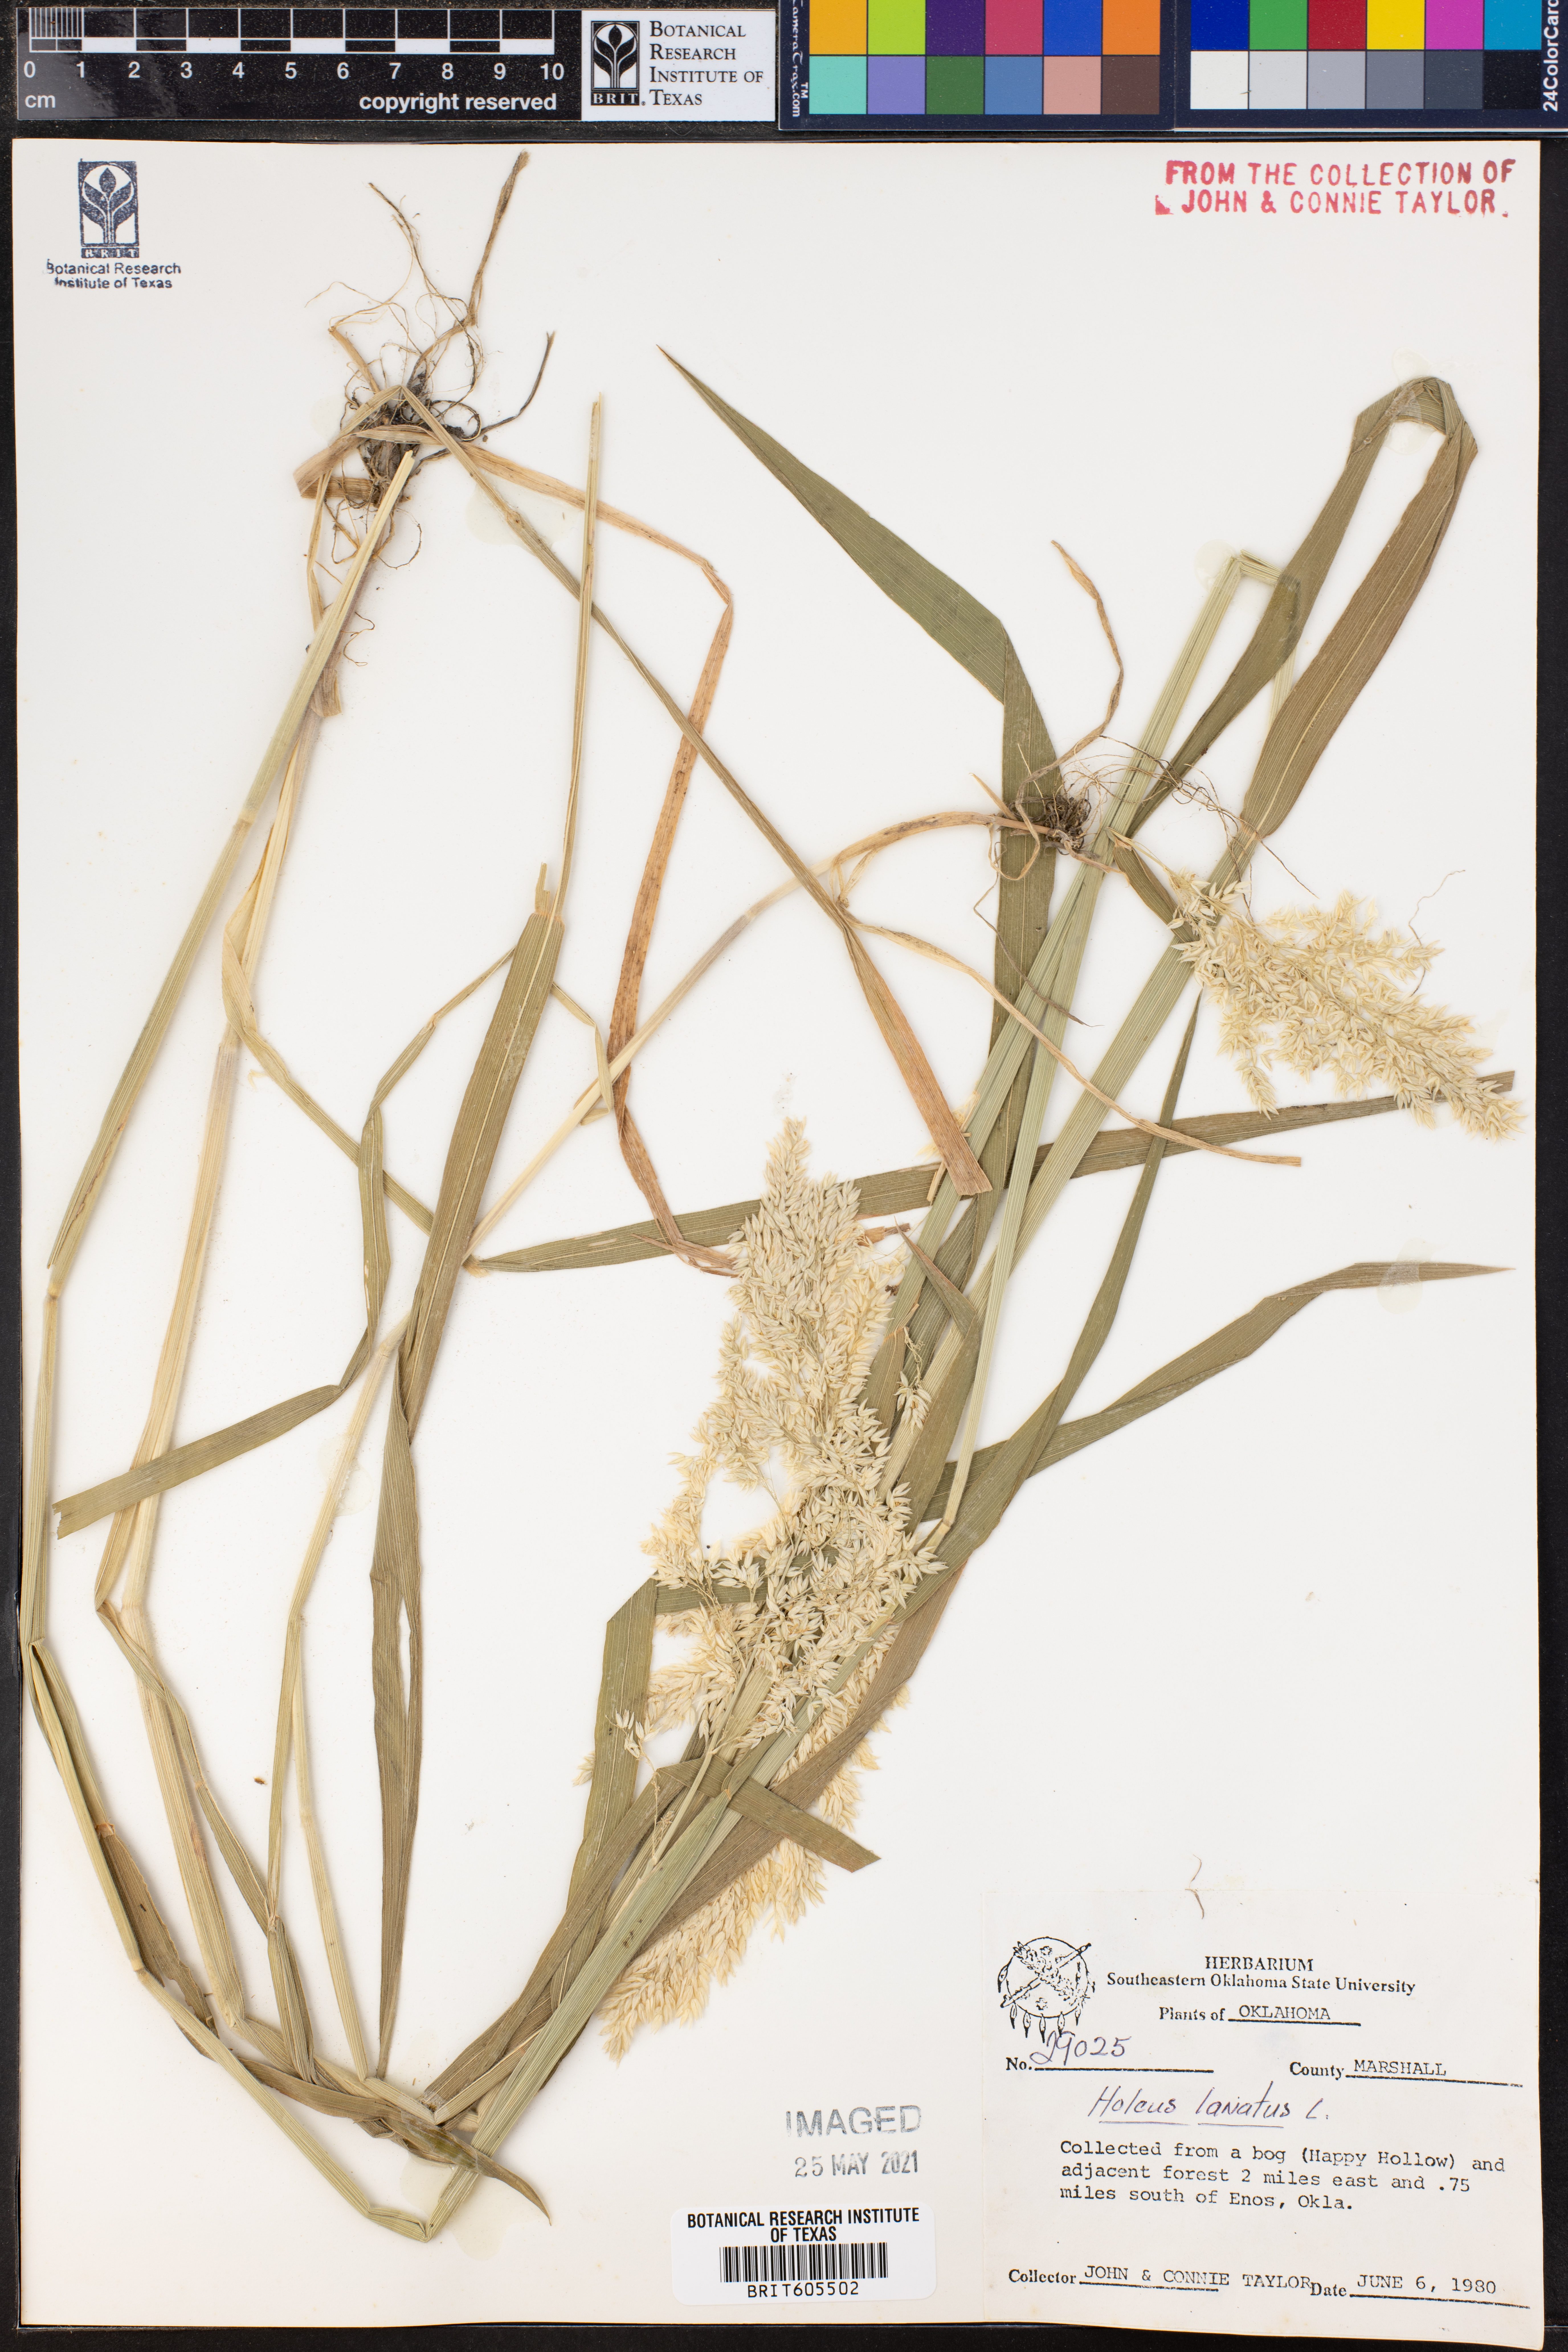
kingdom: Plantae
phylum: Tracheophyta
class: Liliopsida
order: Poales
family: Poaceae
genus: Holcus
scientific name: Holcus lanatus
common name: Yorkshire-fog
